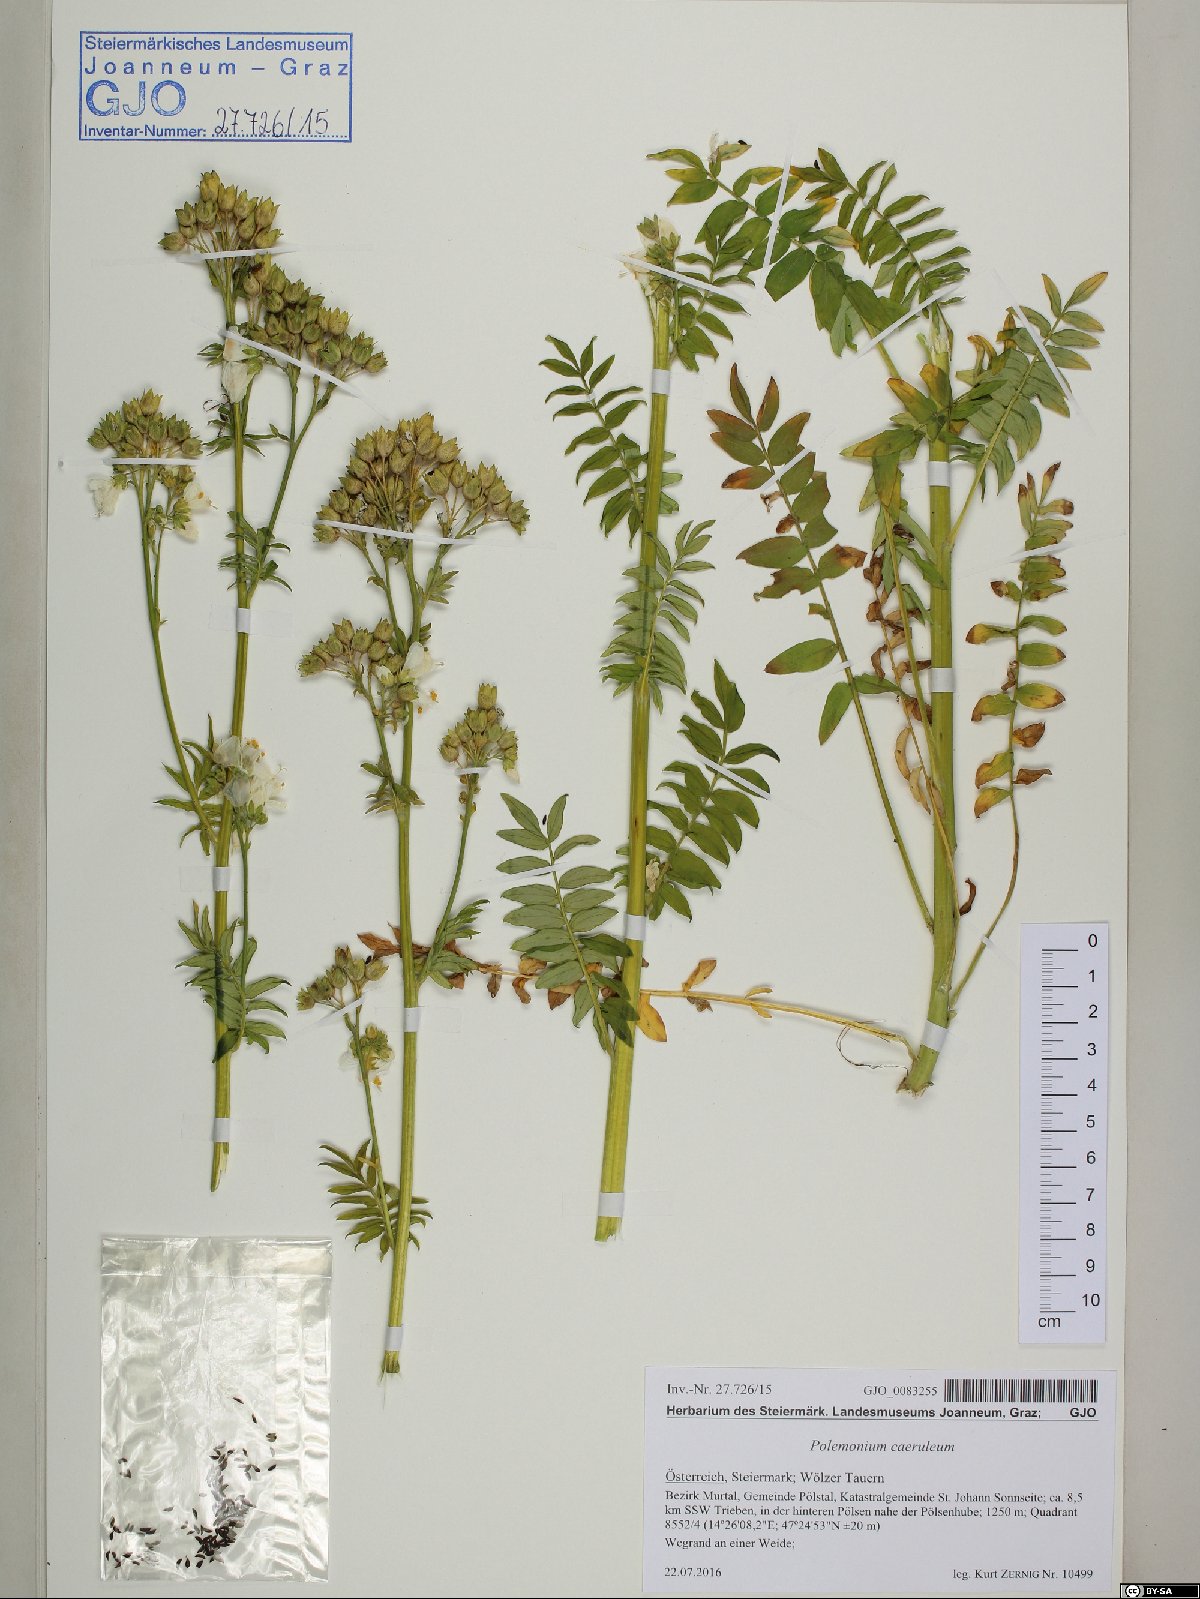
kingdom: Plantae
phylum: Tracheophyta
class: Magnoliopsida
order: Ericales
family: Polemoniaceae
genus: Polemonium
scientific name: Polemonium caeruleum
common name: Jacob's-ladder
